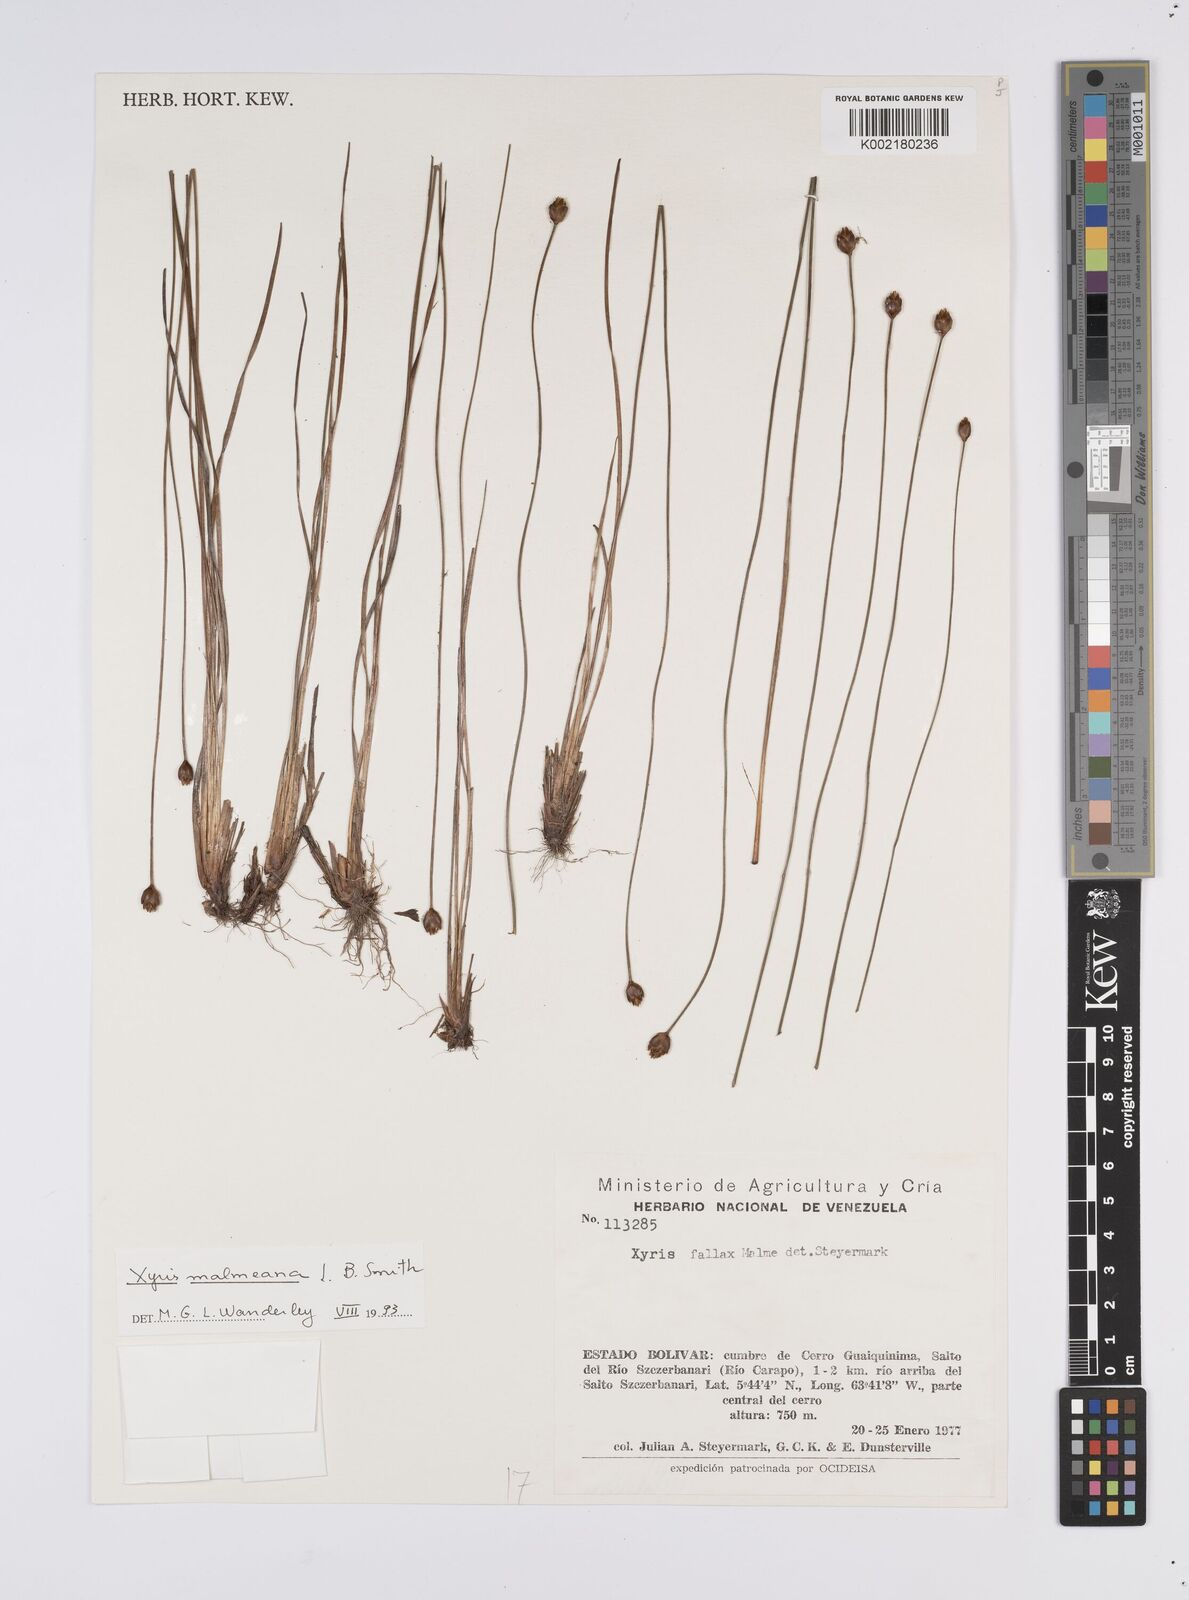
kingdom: Plantae
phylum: Tracheophyta
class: Liliopsida
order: Poales
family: Xyridaceae
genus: Xyris
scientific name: Xyris malmeana
